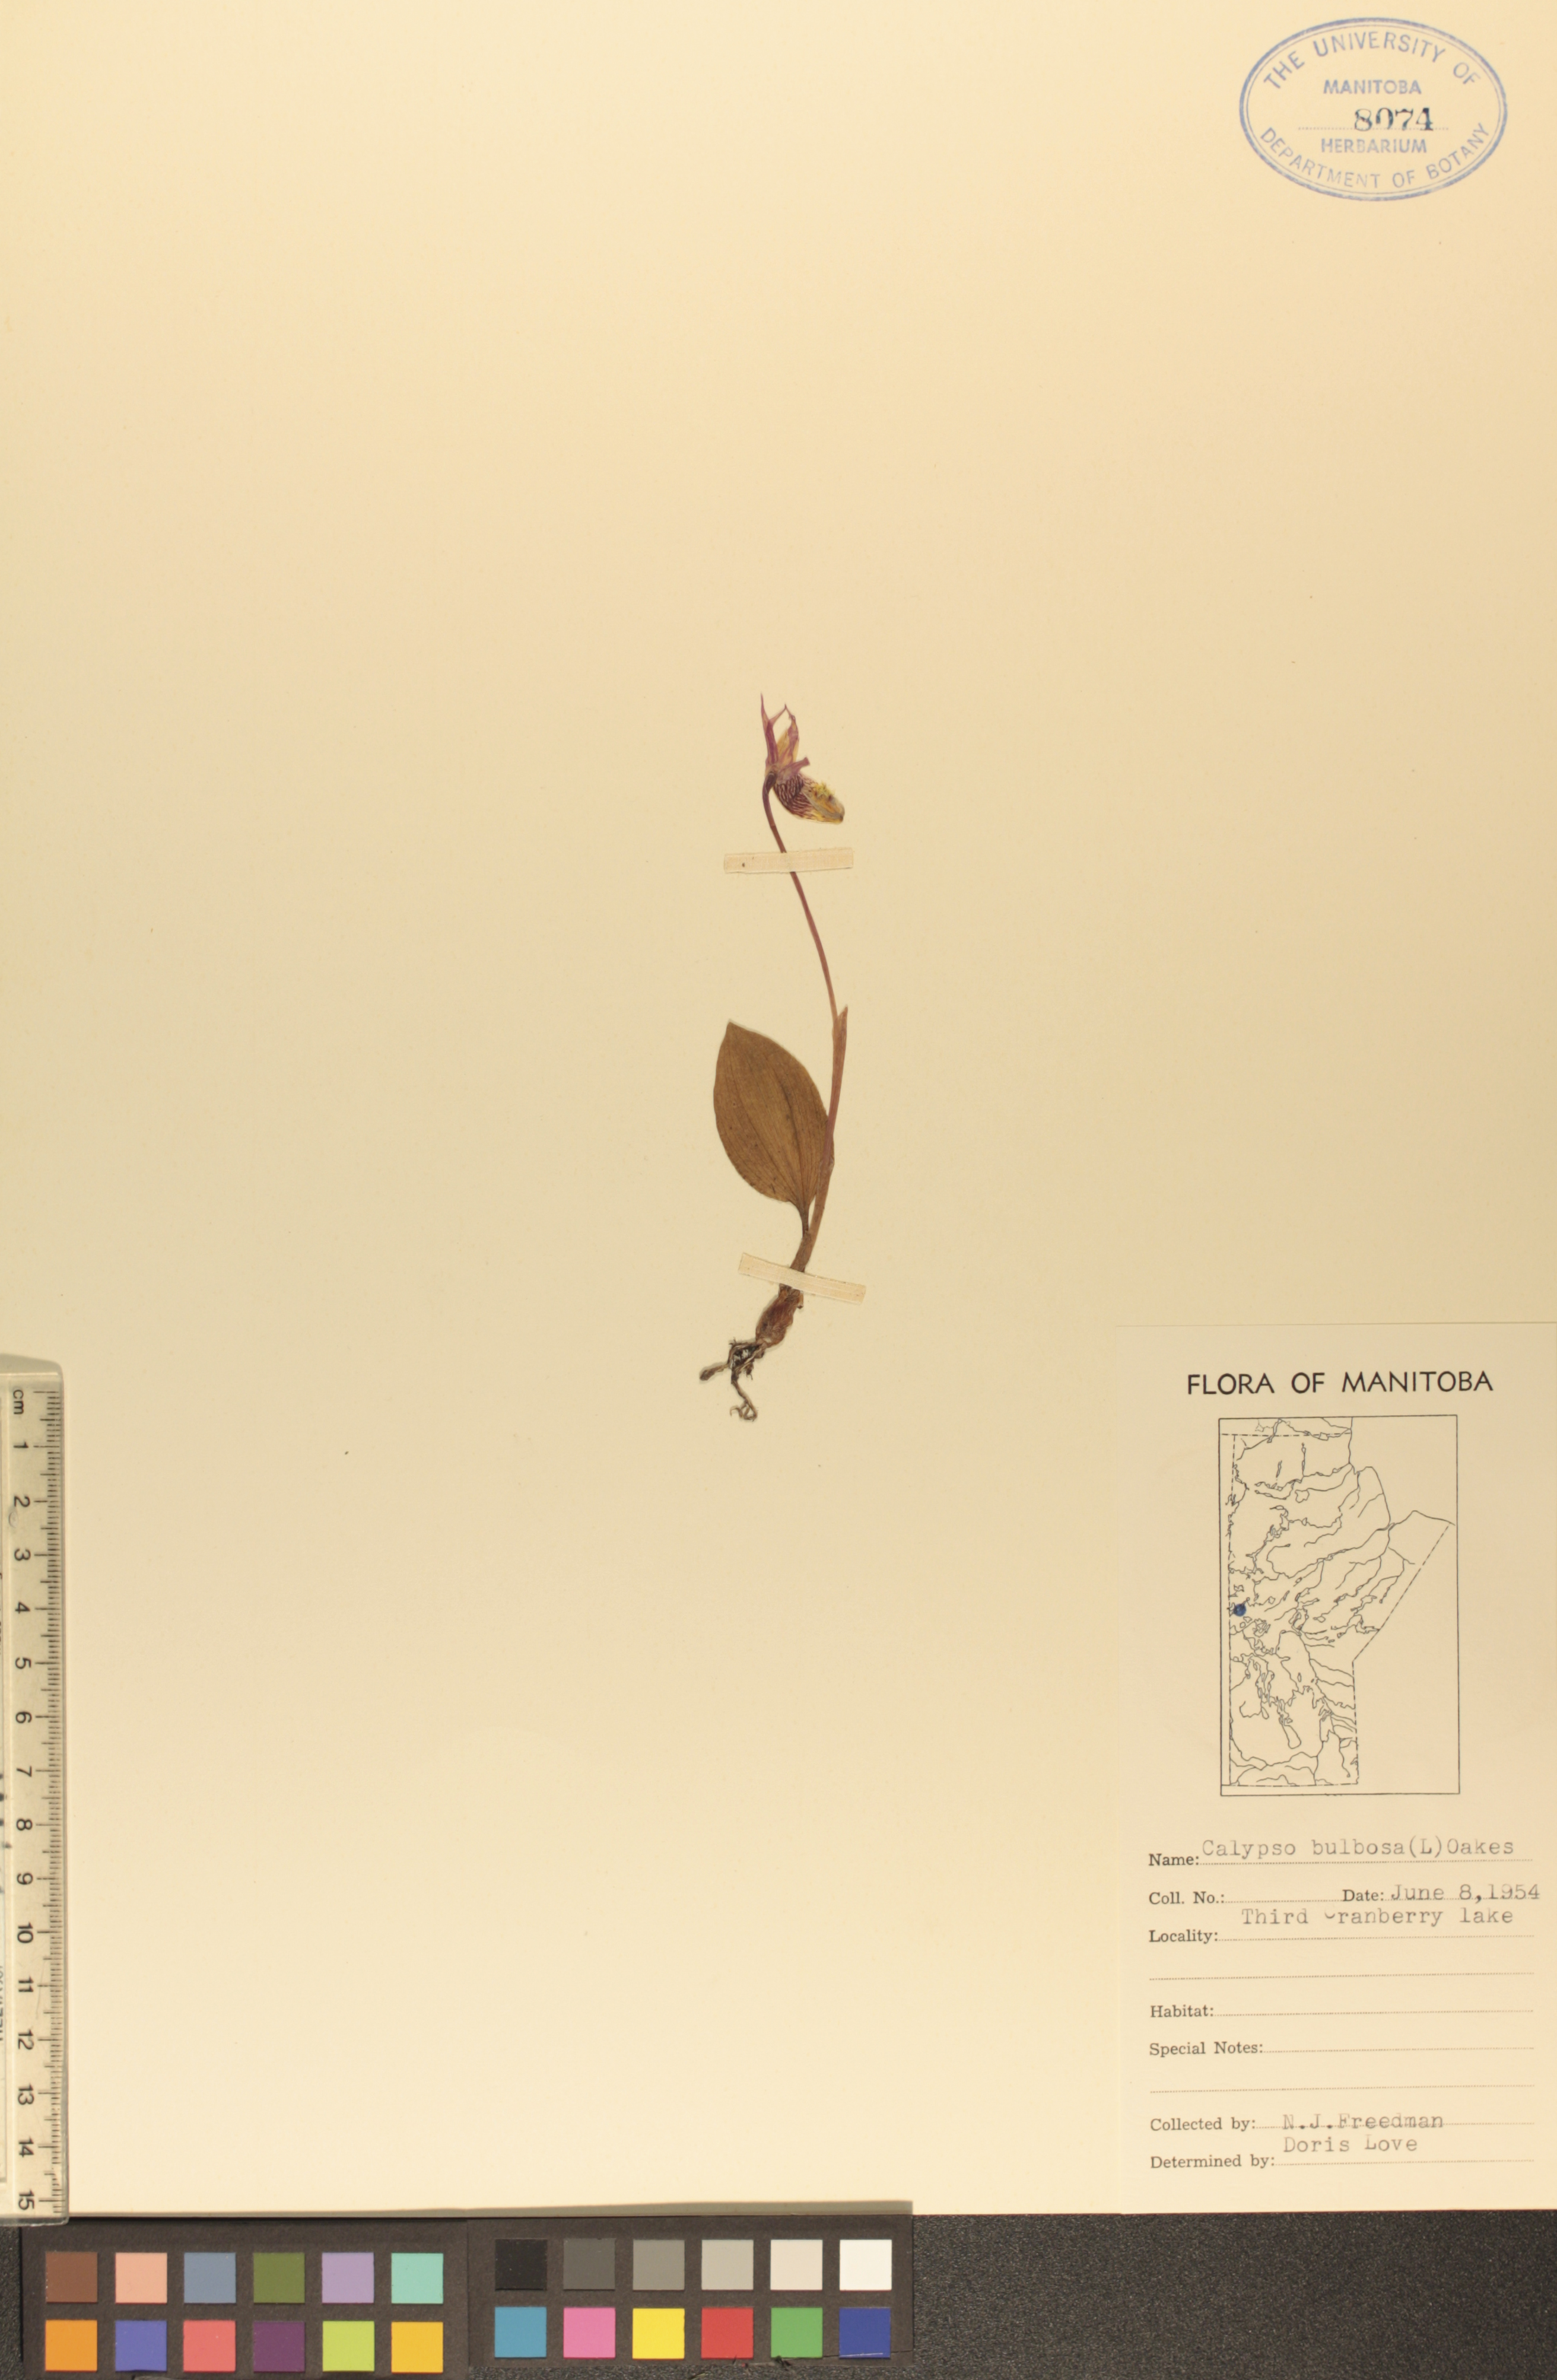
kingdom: Plantae
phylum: Tracheophyta
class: Liliopsida
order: Asparagales
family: Orchidaceae
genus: Calypso
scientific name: Calypso bulbosa
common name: Calypso
